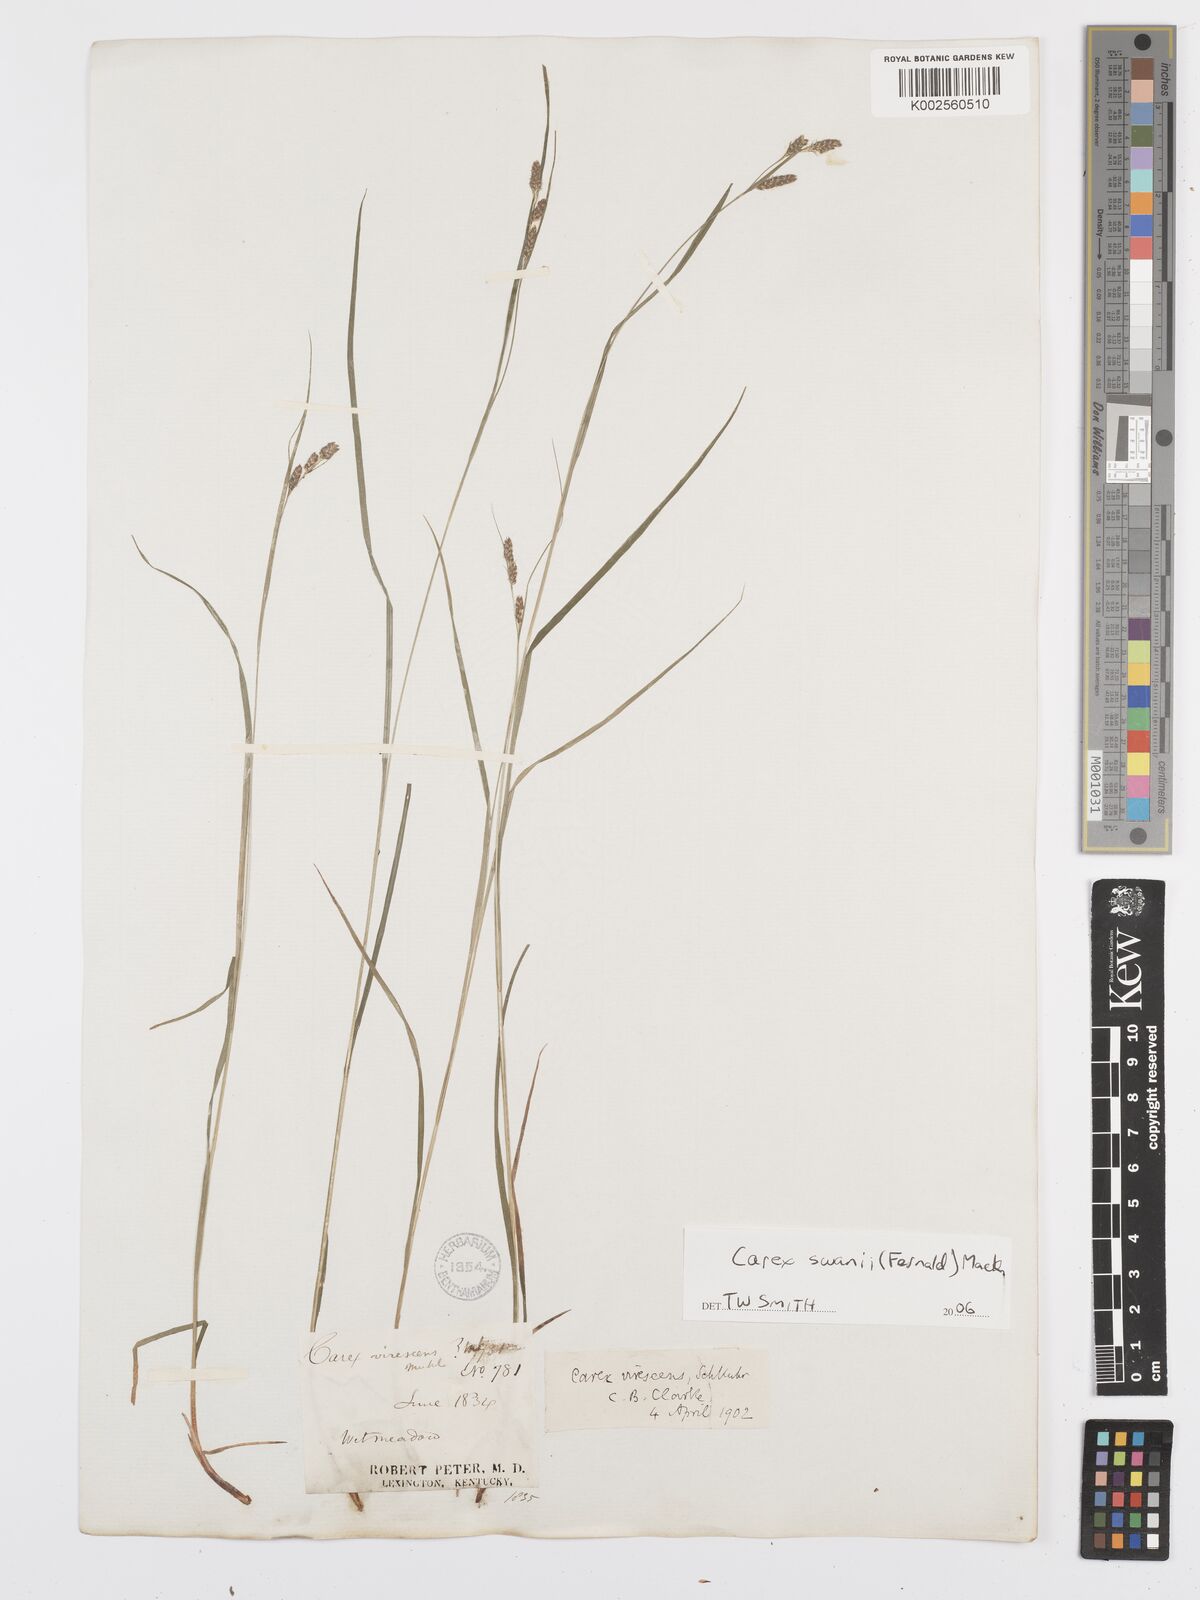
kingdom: Plantae
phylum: Tracheophyta
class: Liliopsida
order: Poales
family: Cyperaceae
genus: Carex
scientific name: Carex swanii
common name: Downy green sedge
